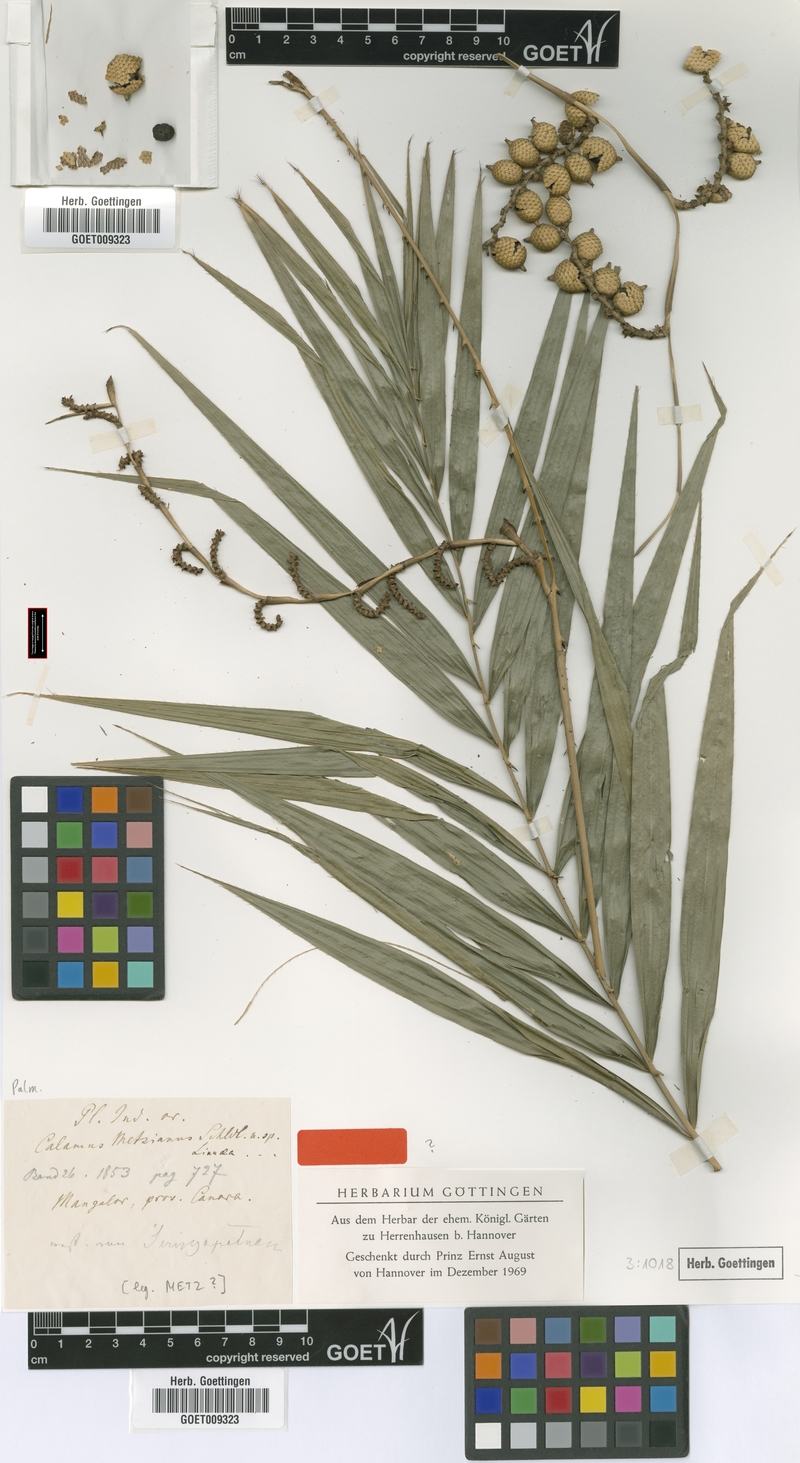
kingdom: Plantae
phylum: Tracheophyta
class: Liliopsida
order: Arecales
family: Arecaceae
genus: Calamus
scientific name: Calamus metzianus
